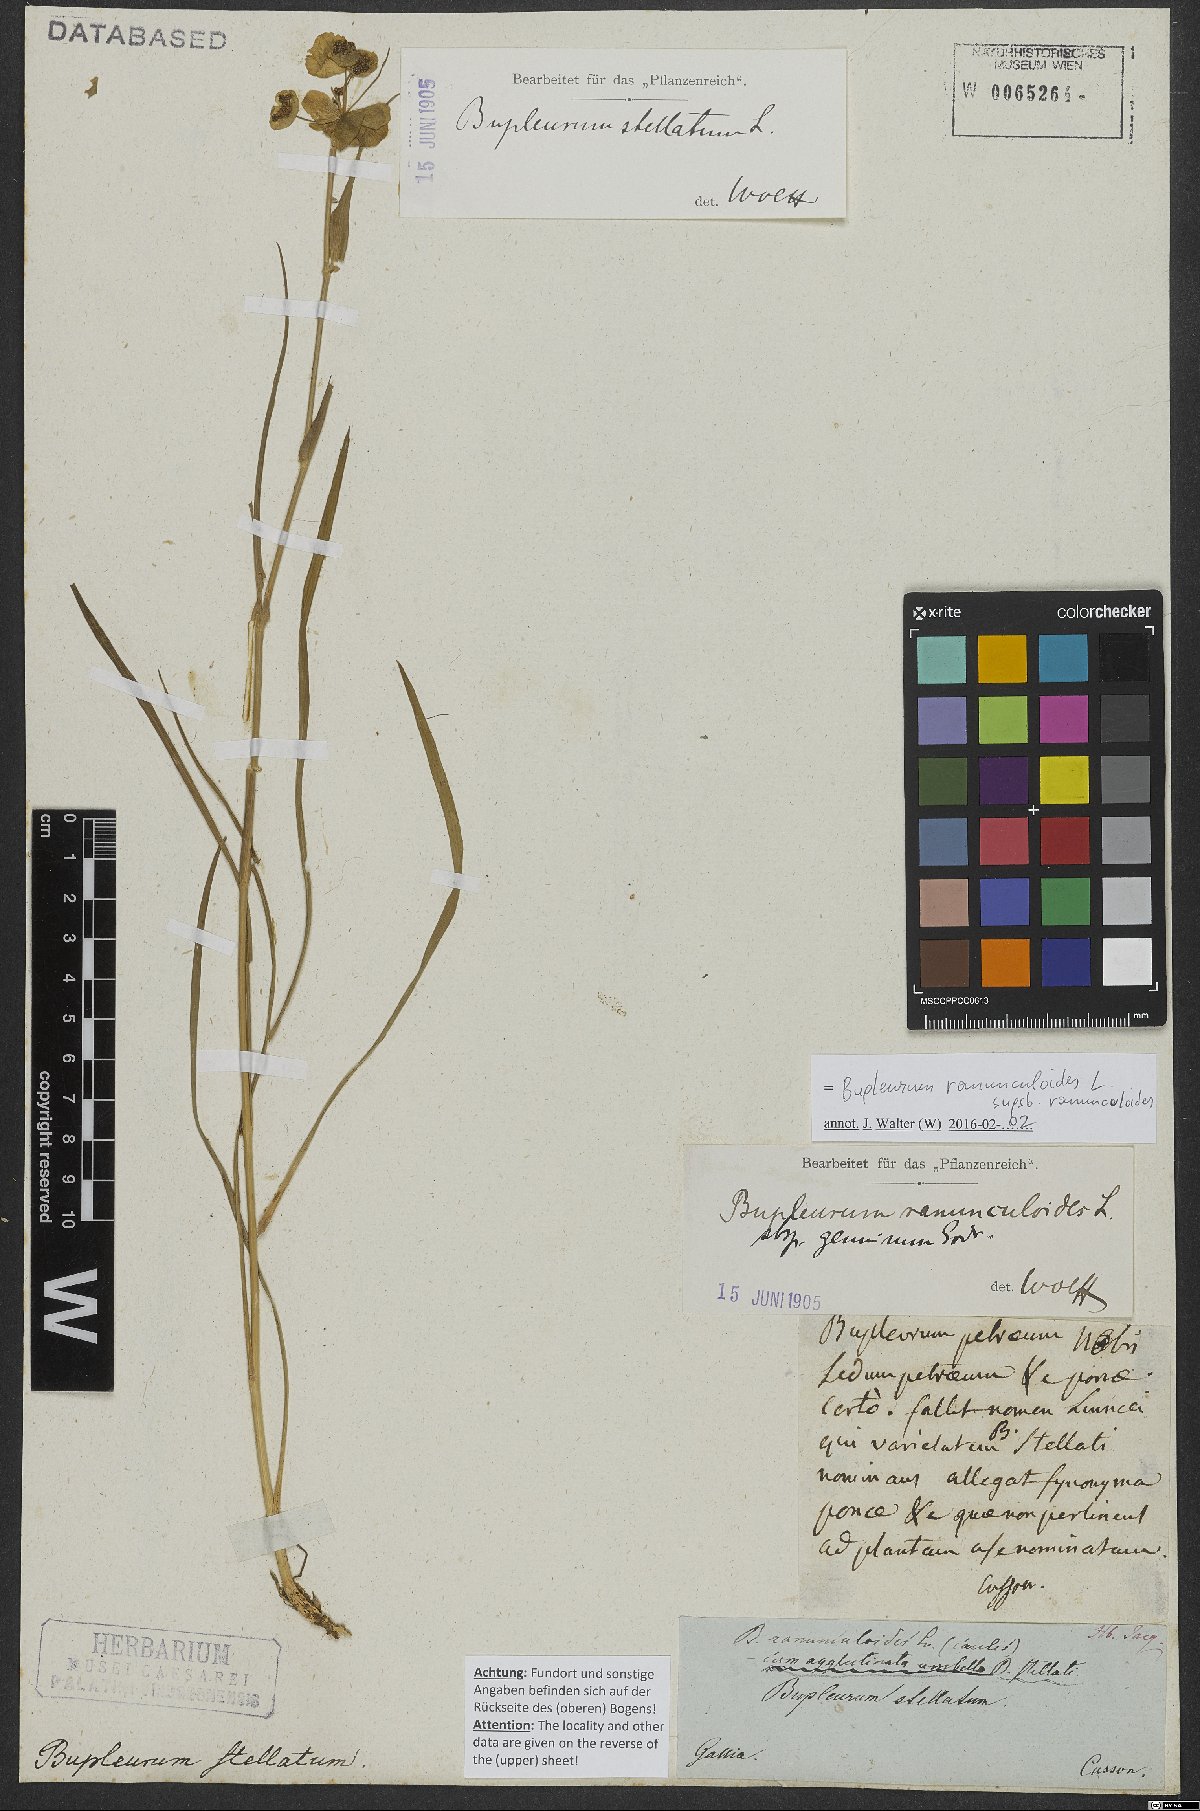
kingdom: Plantae
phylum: Tracheophyta
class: Magnoliopsida
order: Apiales
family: Apiaceae
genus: Bupleurum
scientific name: Bupleurum ranunculoides
